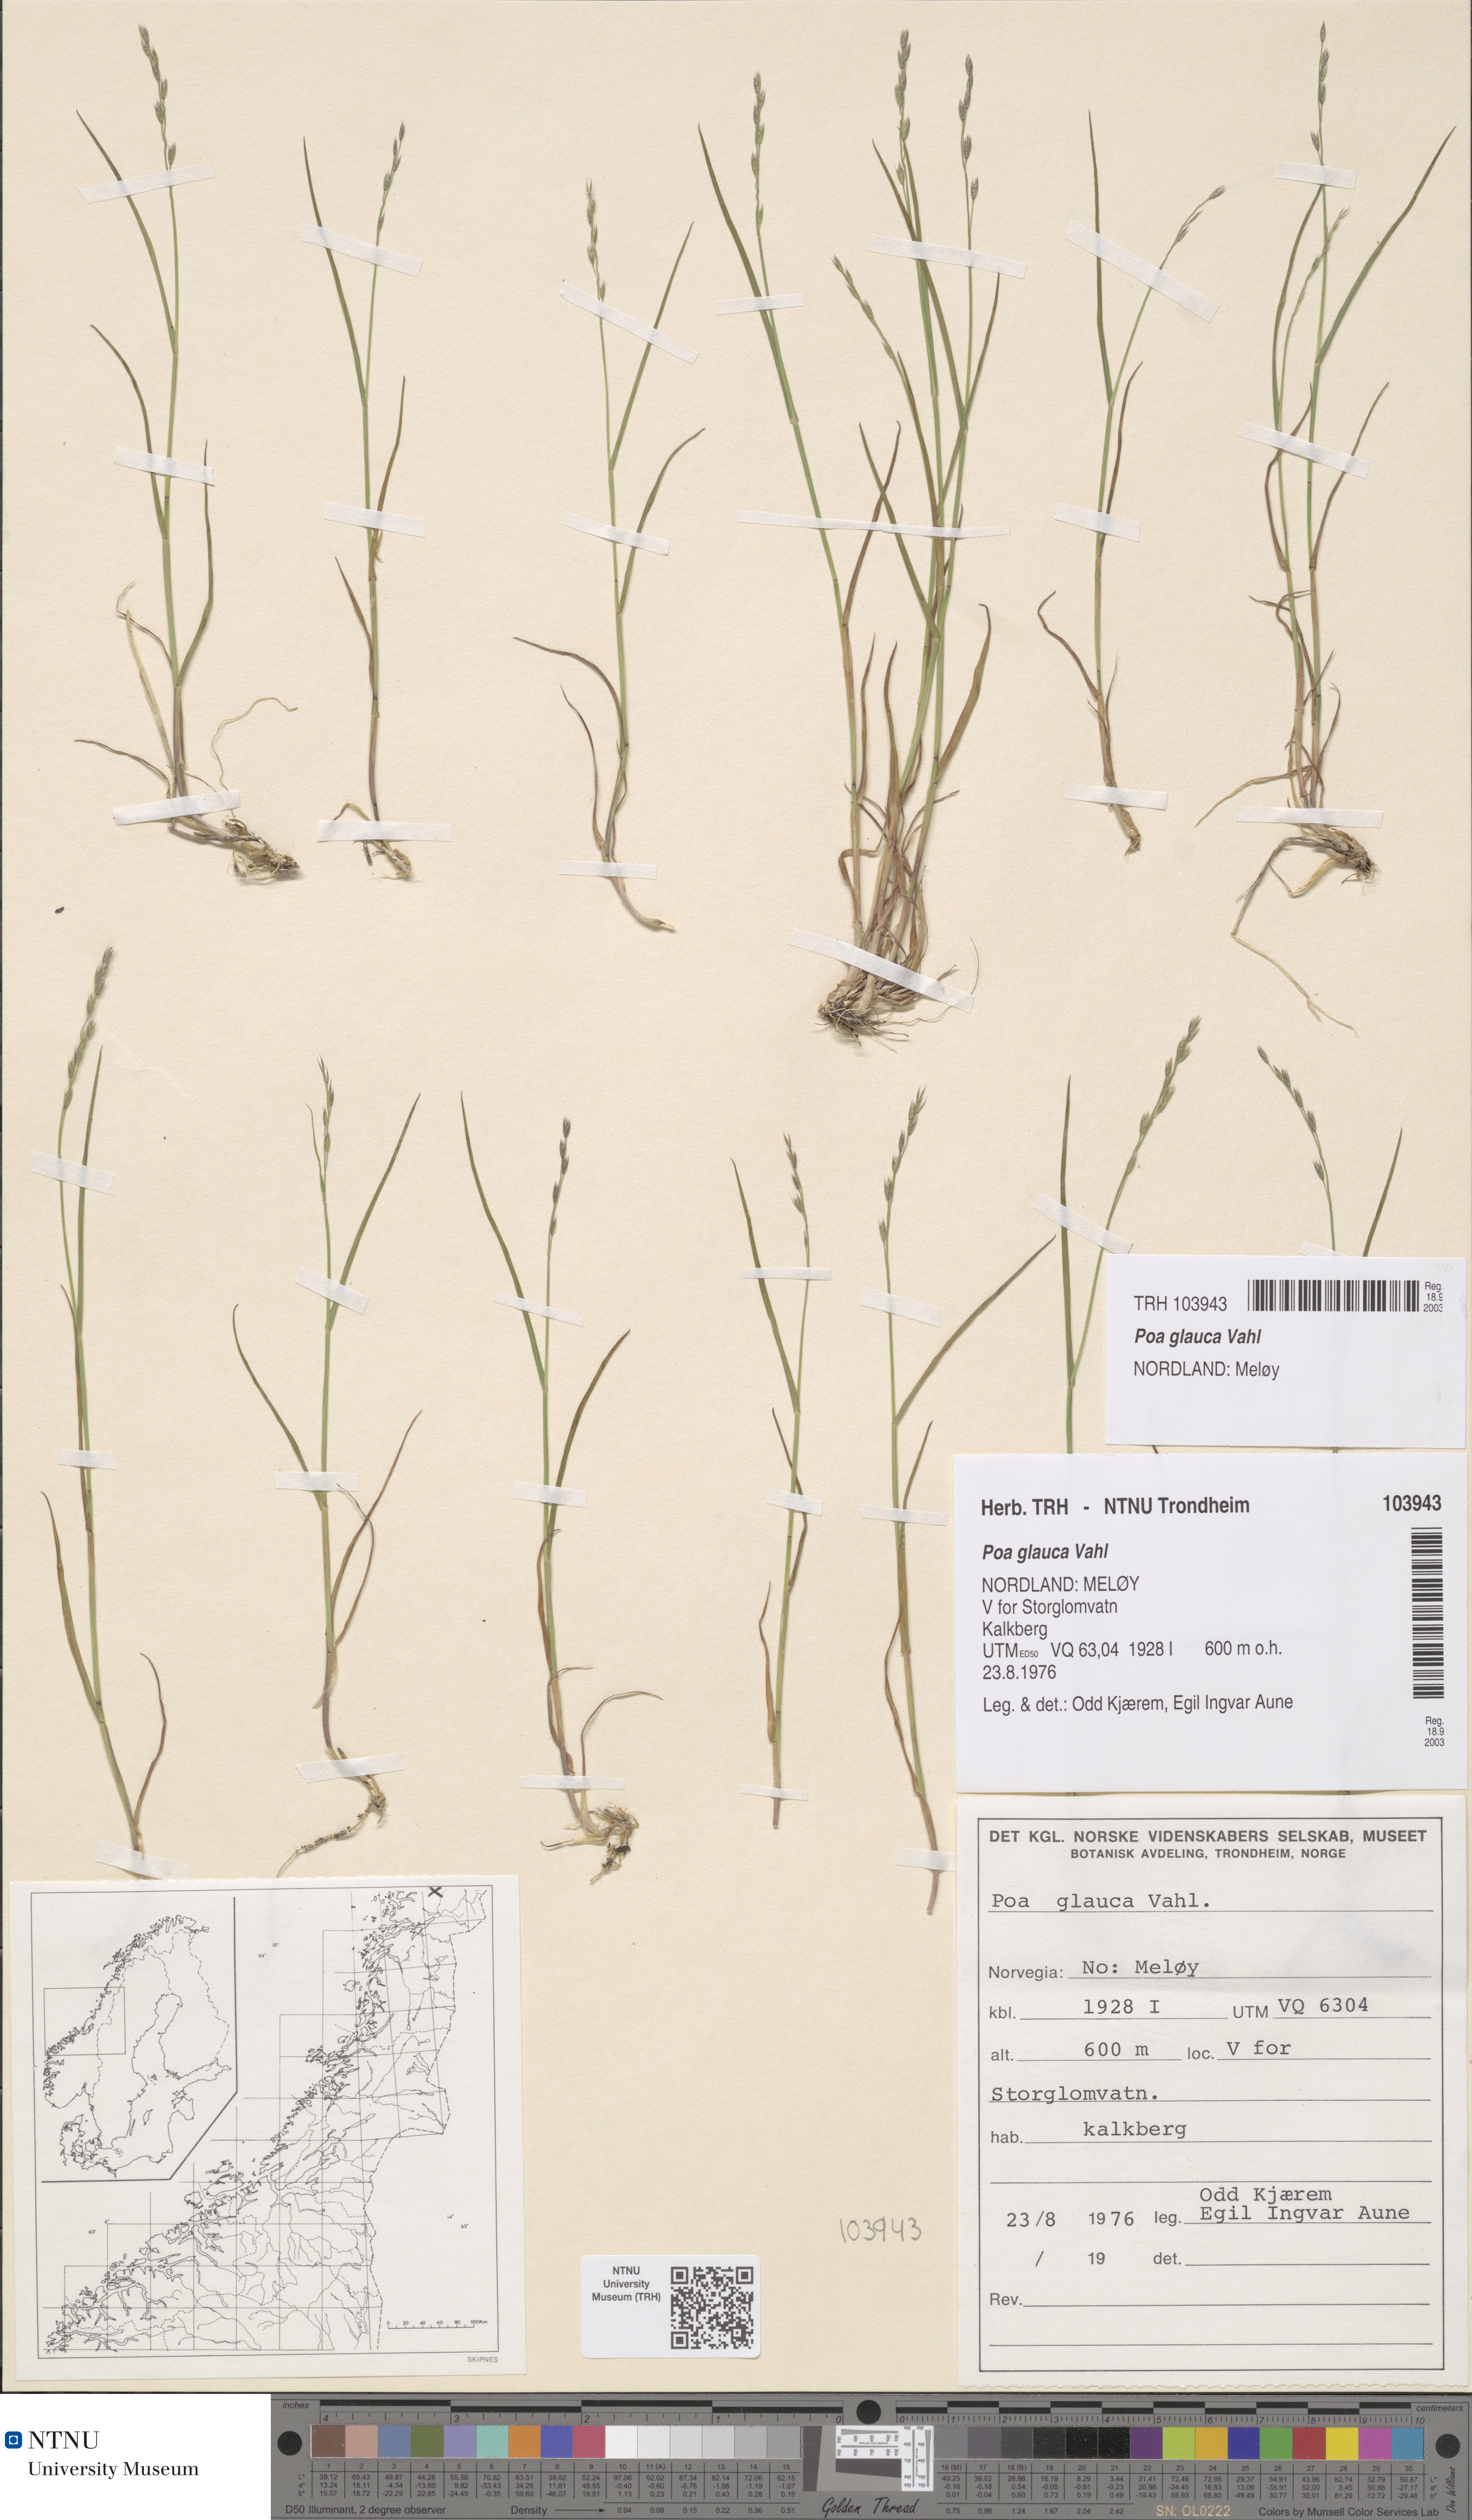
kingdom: Plantae
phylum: Tracheophyta
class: Liliopsida
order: Poales
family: Poaceae
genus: Poa
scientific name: Poa glauca
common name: Glaucous bluegrass
